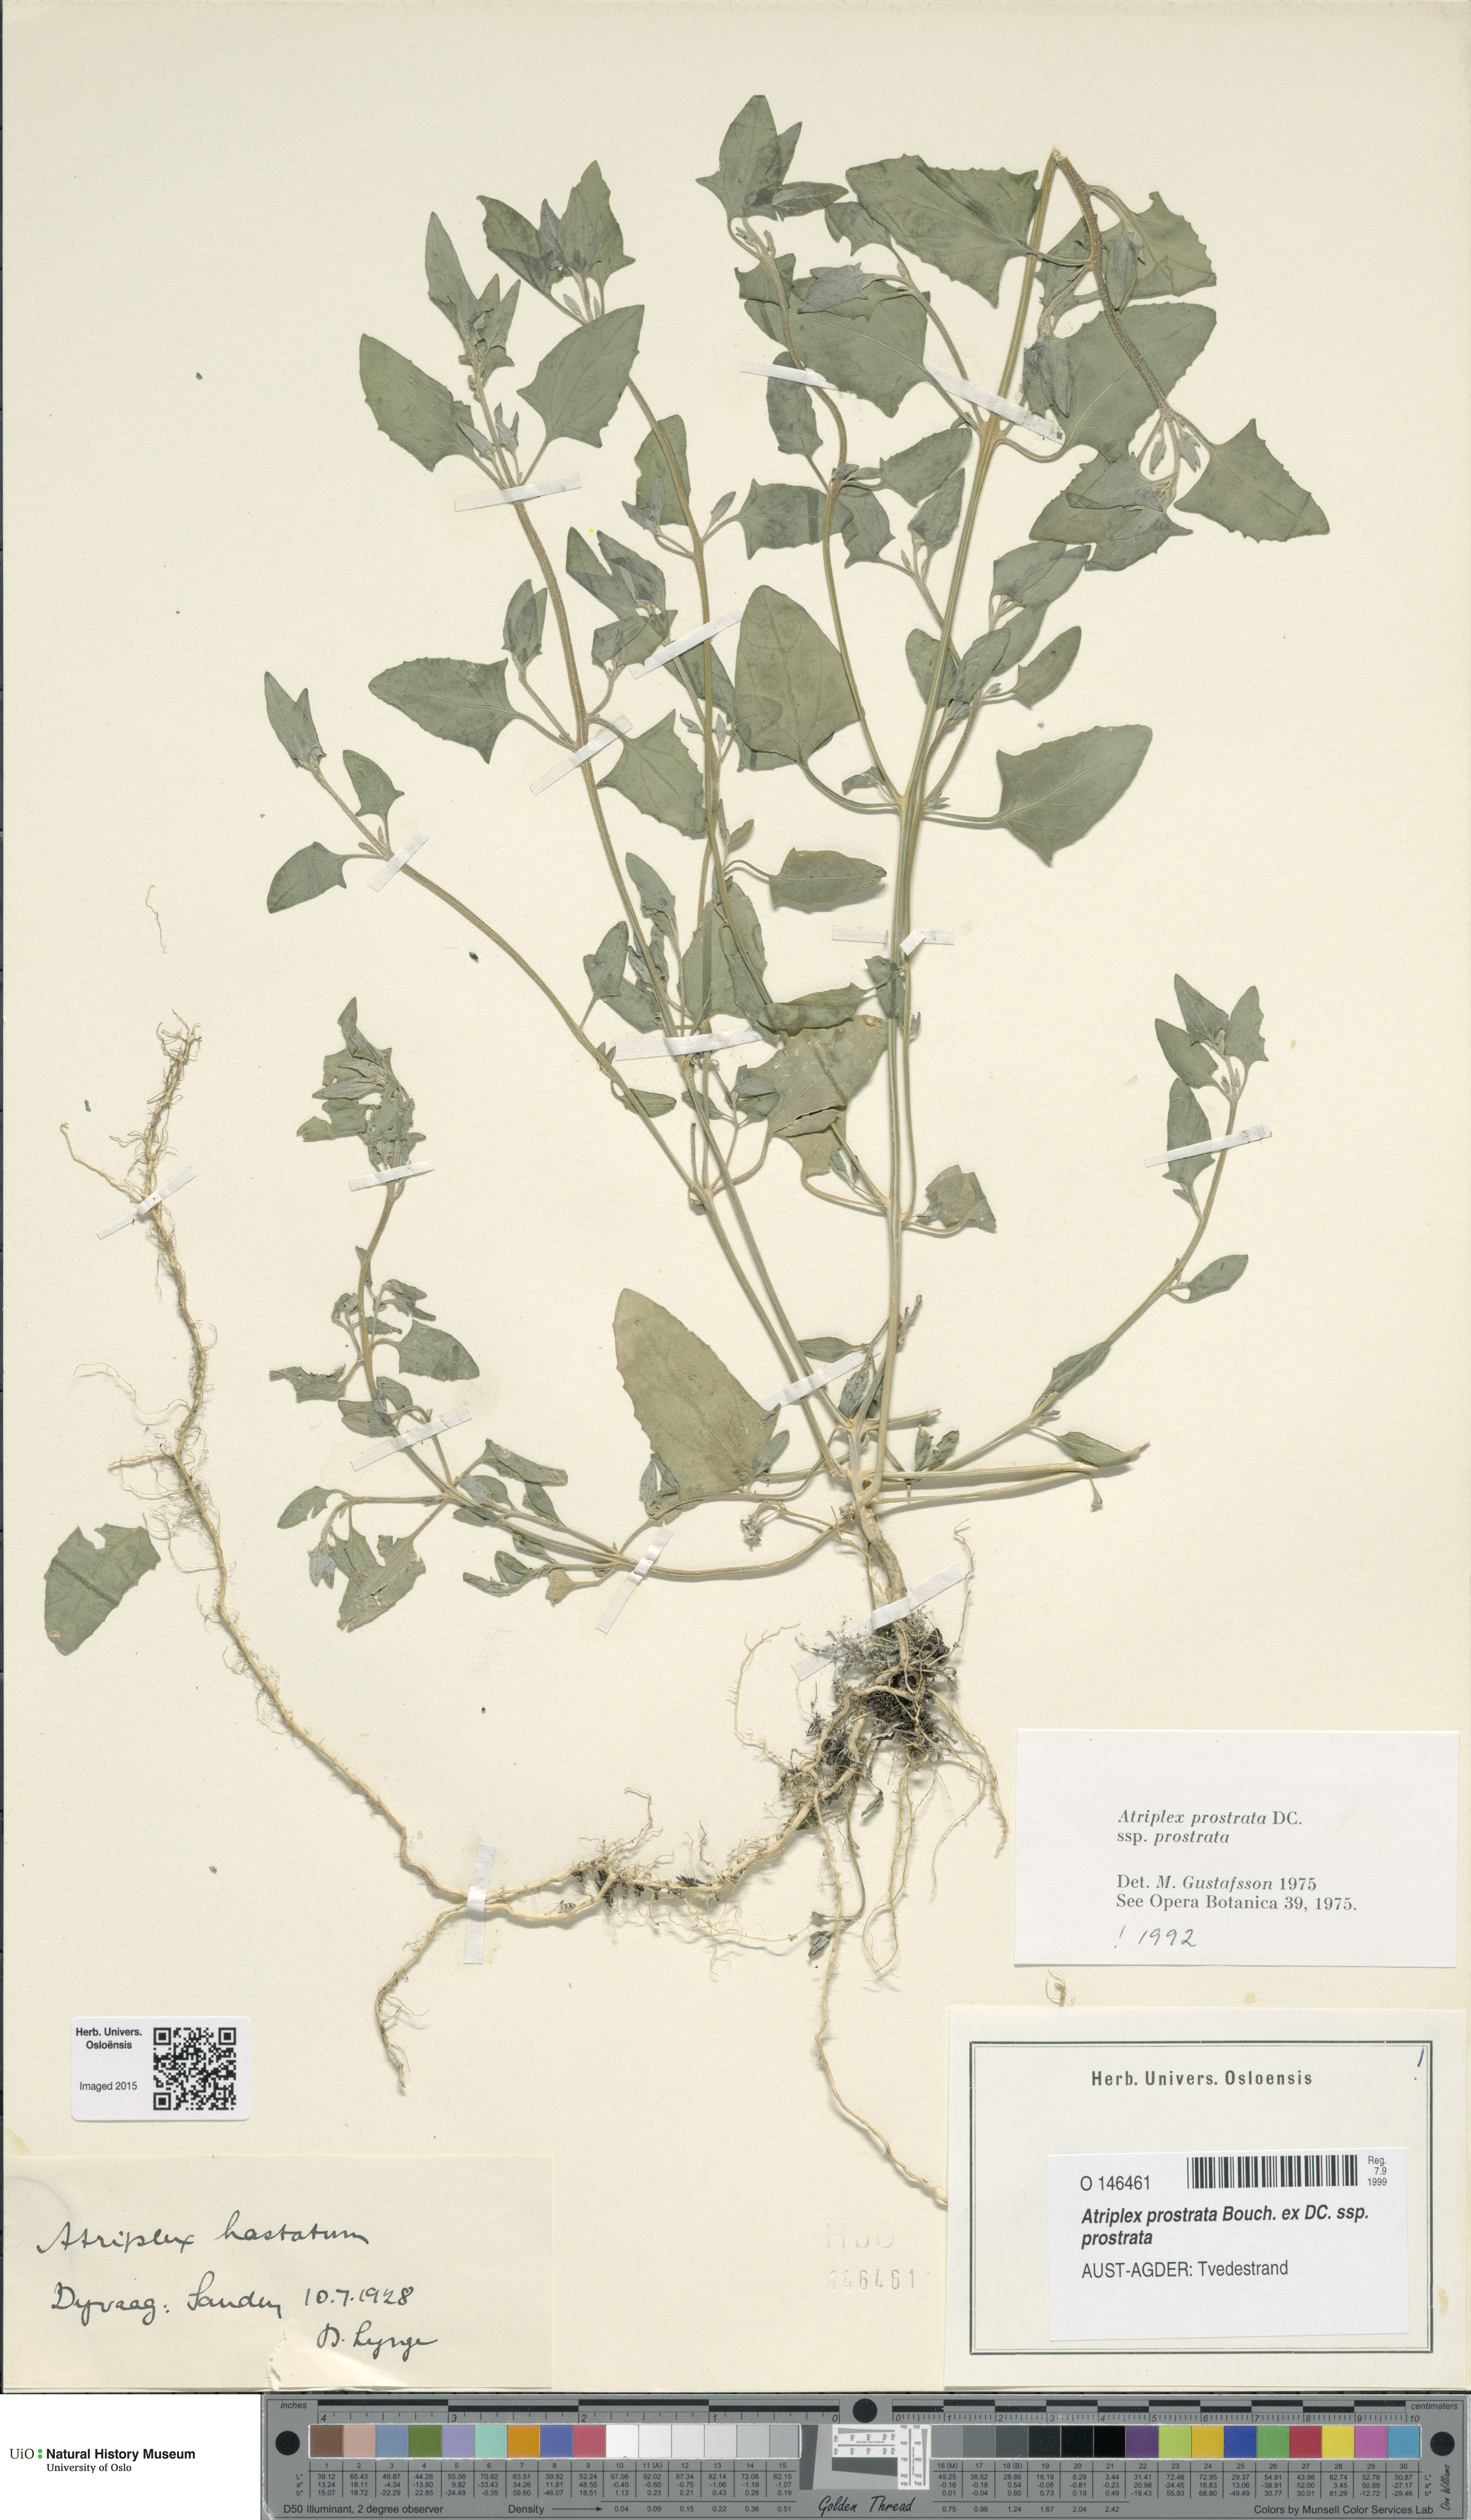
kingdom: Plantae
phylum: Tracheophyta
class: Magnoliopsida
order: Caryophyllales
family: Amaranthaceae
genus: Atriplex
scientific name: Atriplex prostrata
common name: Spear-leaved orache
